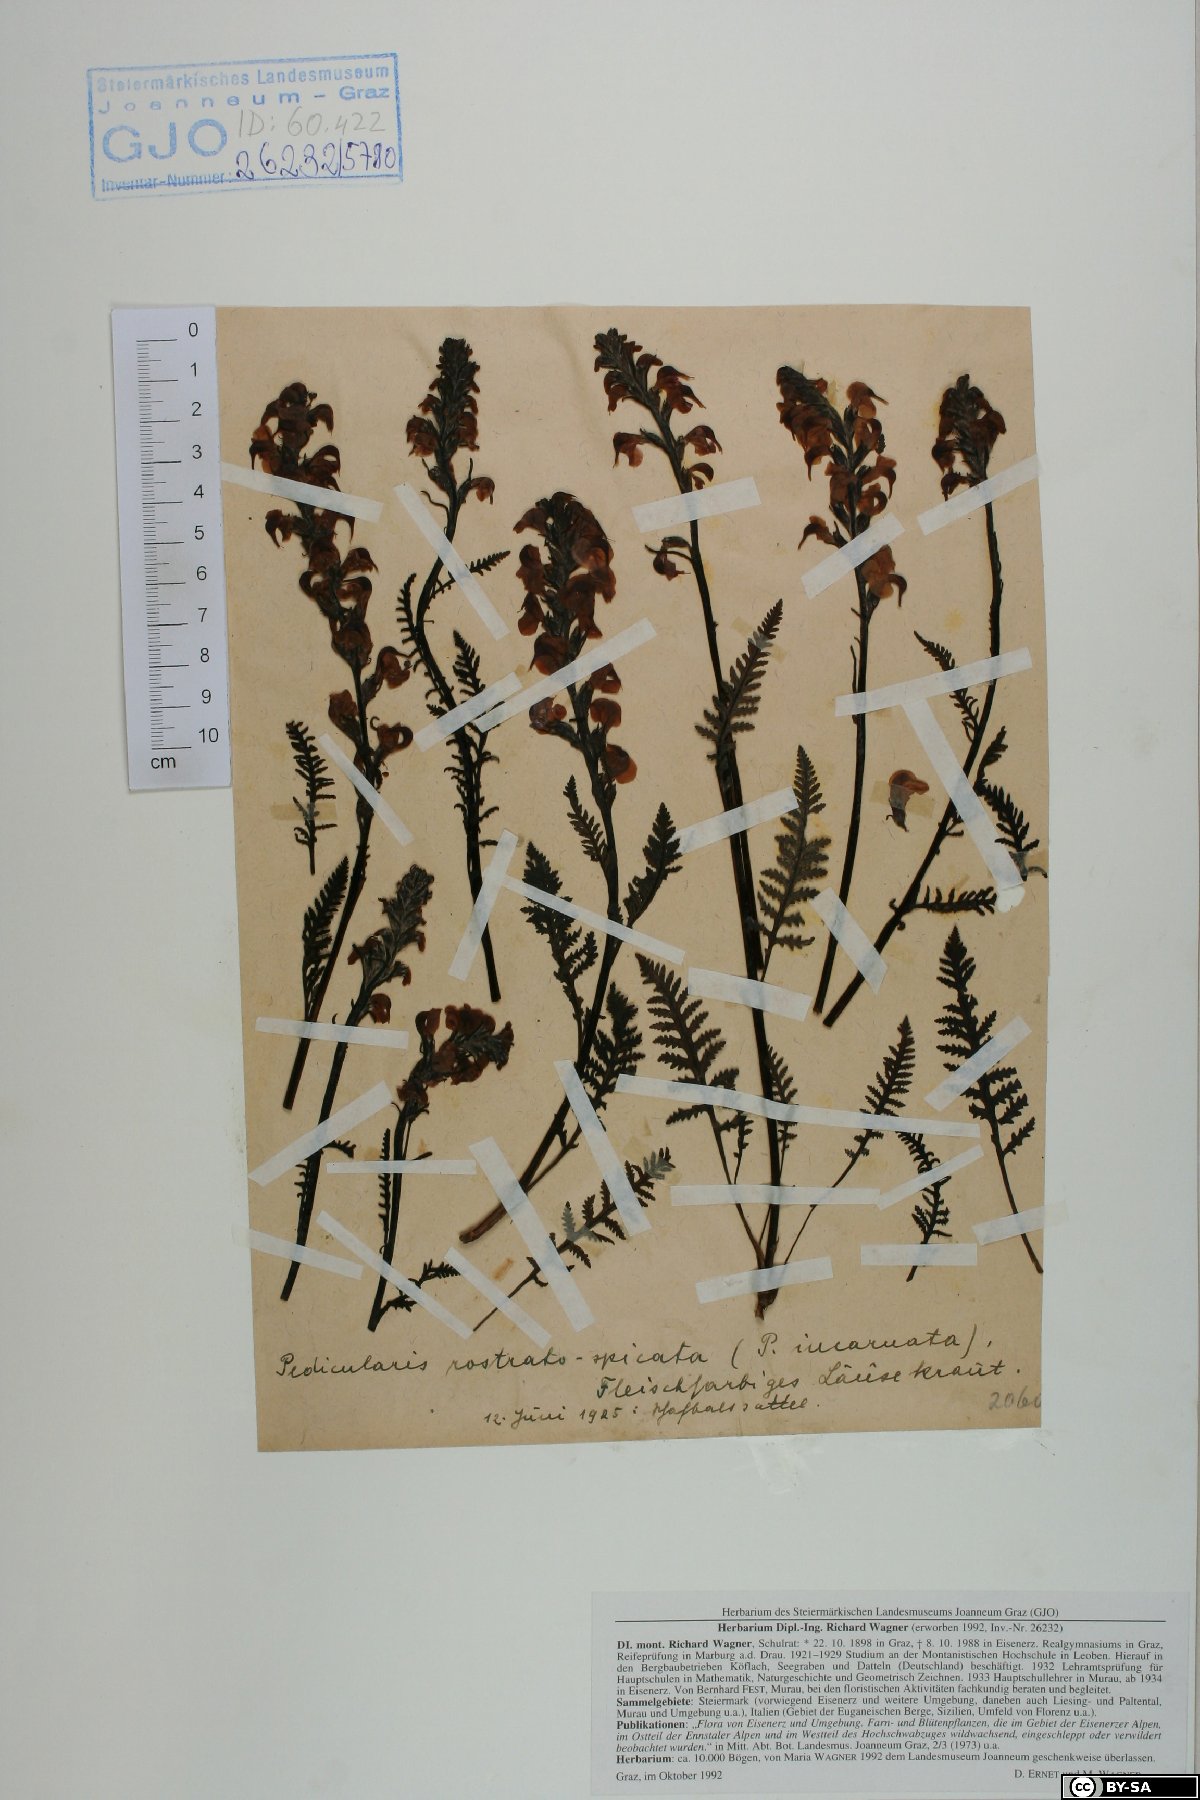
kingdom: Plantae
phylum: Tracheophyta
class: Magnoliopsida
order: Lamiales
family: Orobanchaceae
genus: Pedicularis
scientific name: Pedicularis rostratospicata
